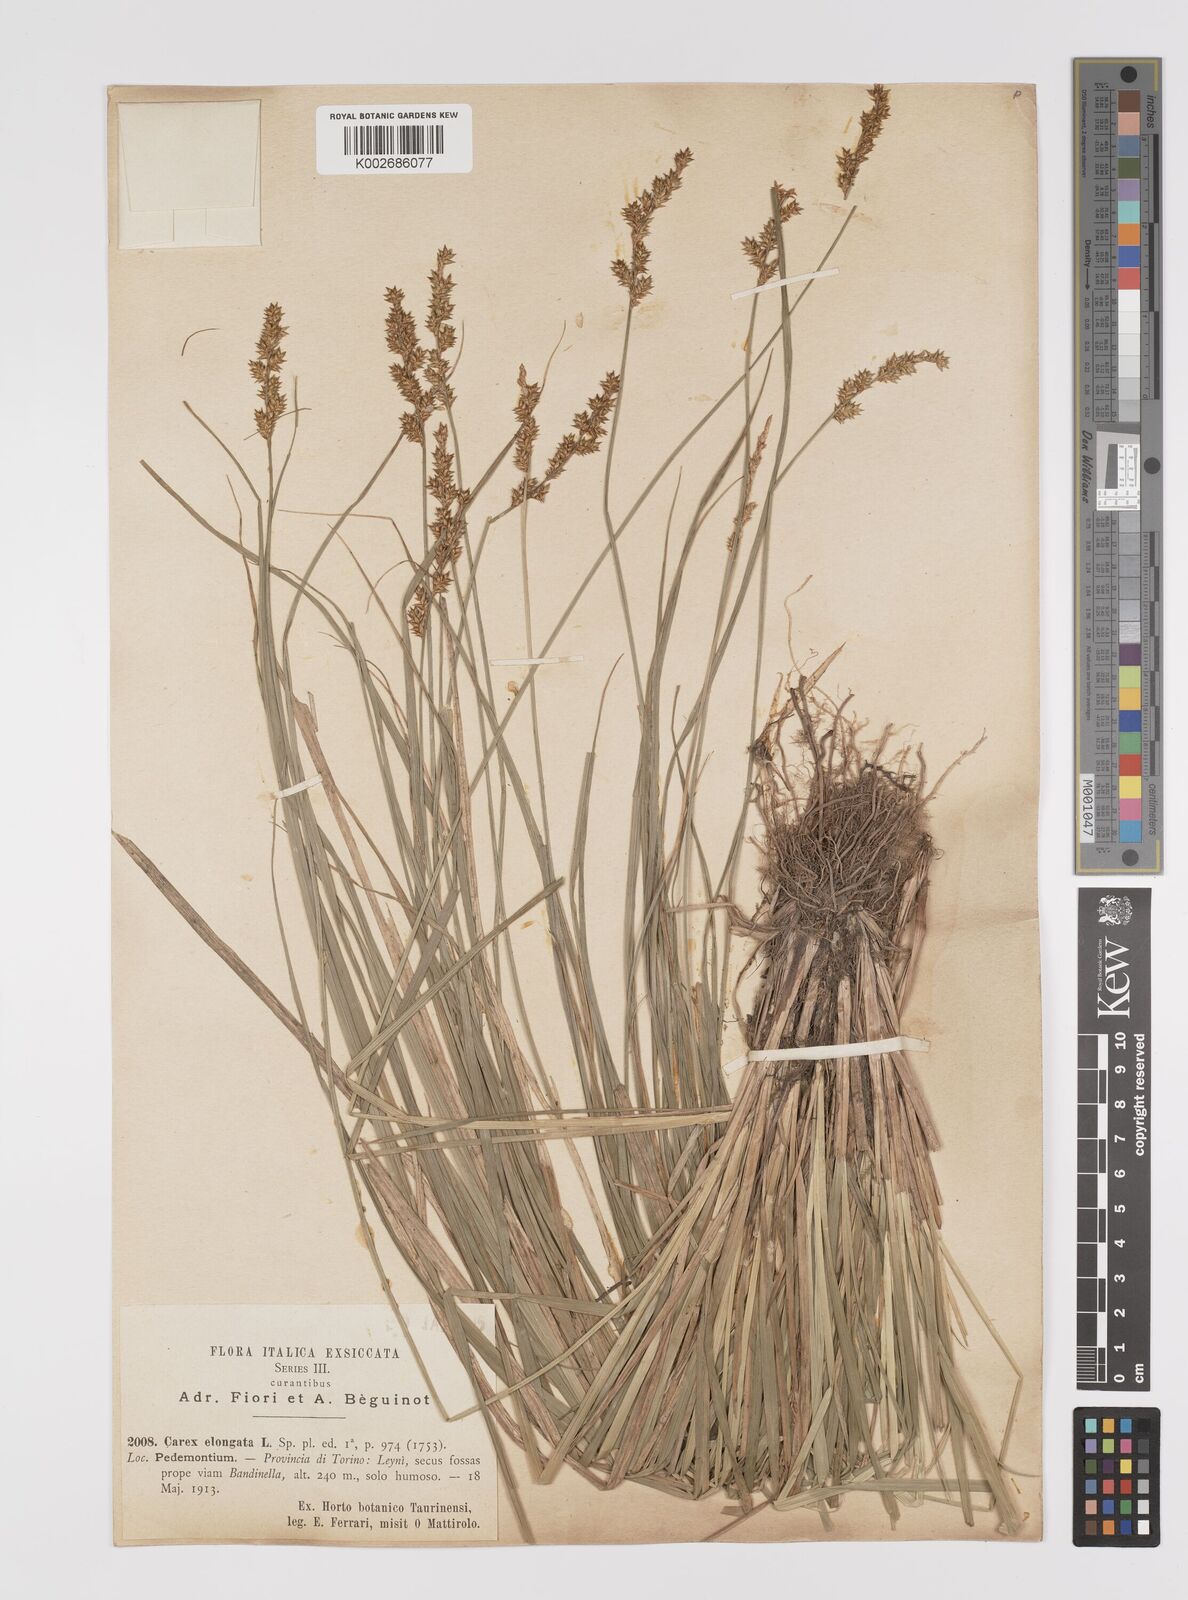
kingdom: Plantae
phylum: Tracheophyta
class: Liliopsida
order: Poales
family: Cyperaceae
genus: Carex
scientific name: Carex elongata
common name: Elongated sedge
